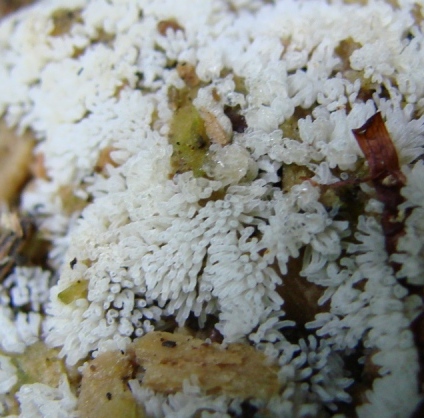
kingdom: Protozoa
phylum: Mycetozoa
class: Protosteliomycetes
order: Ceratiomyxales
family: Ceratiomyxaceae
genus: Ceratiomyxa
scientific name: Ceratiomyxa fruticulosa
